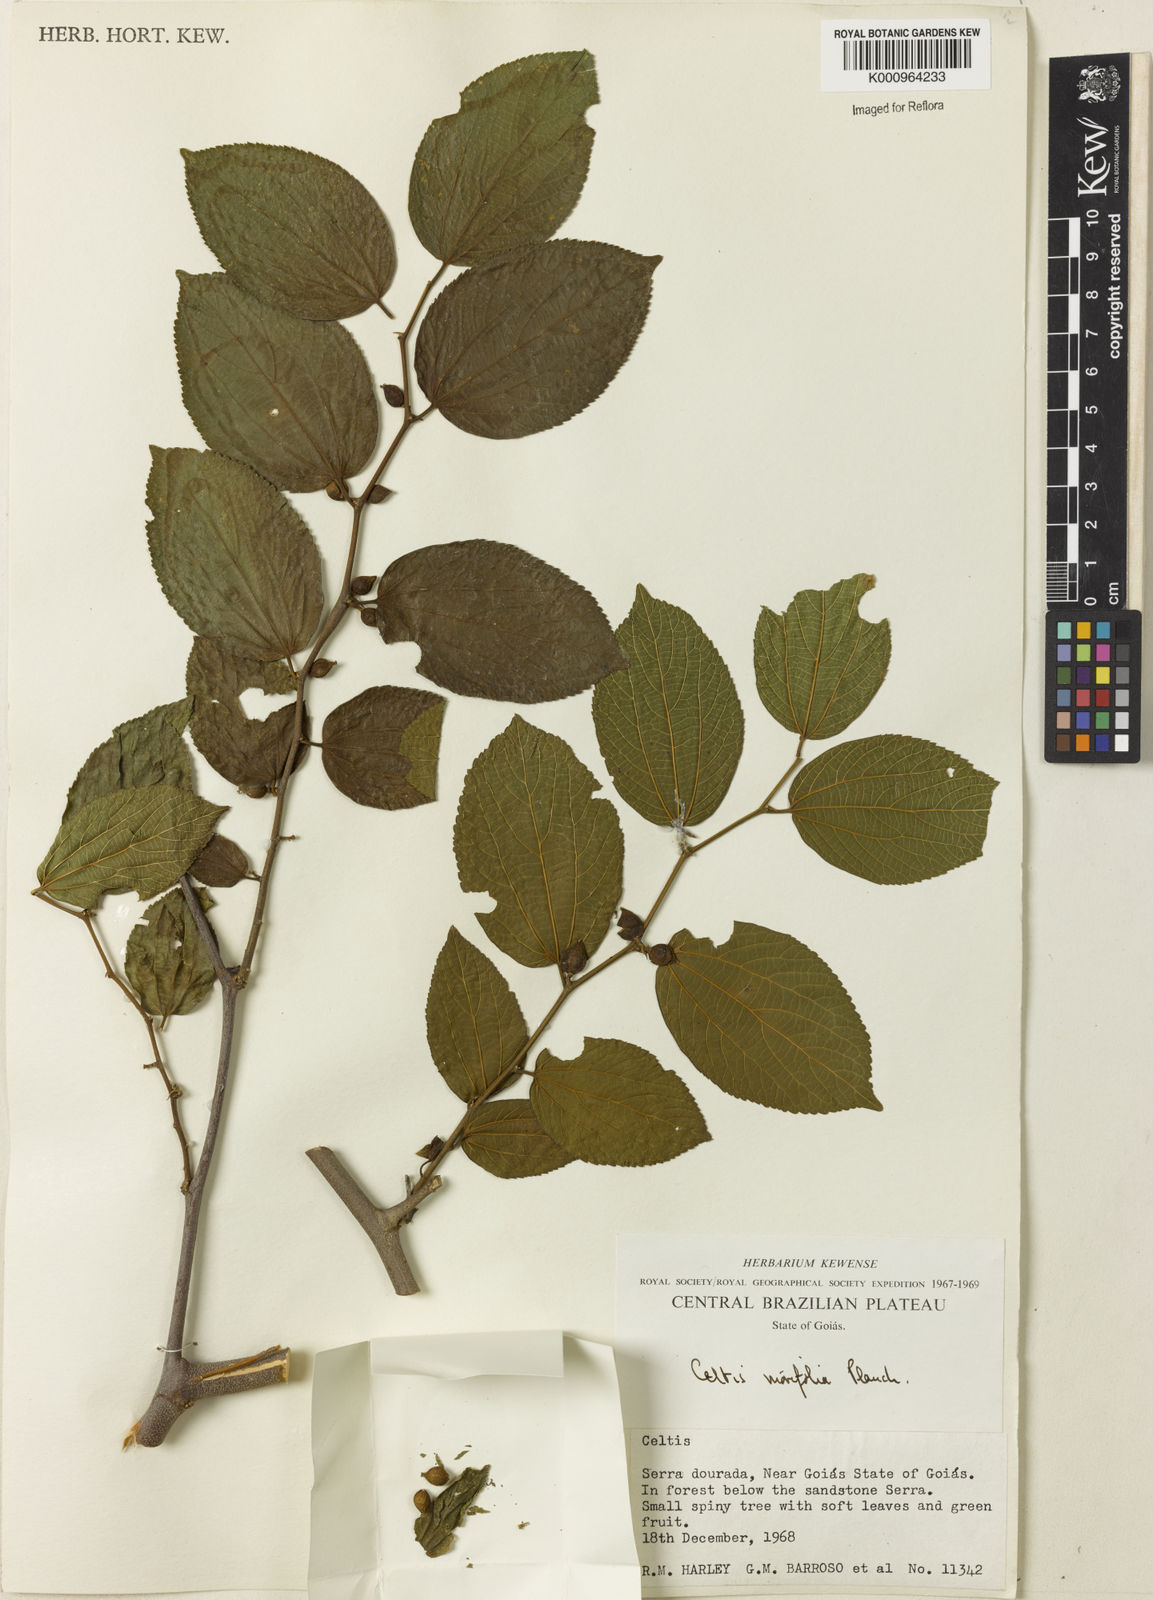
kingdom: Plantae
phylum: Tracheophyta
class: Magnoliopsida
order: Rosales
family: Cannabaceae
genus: Celtis
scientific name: Celtis iguanaea
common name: Iguana hackberry
